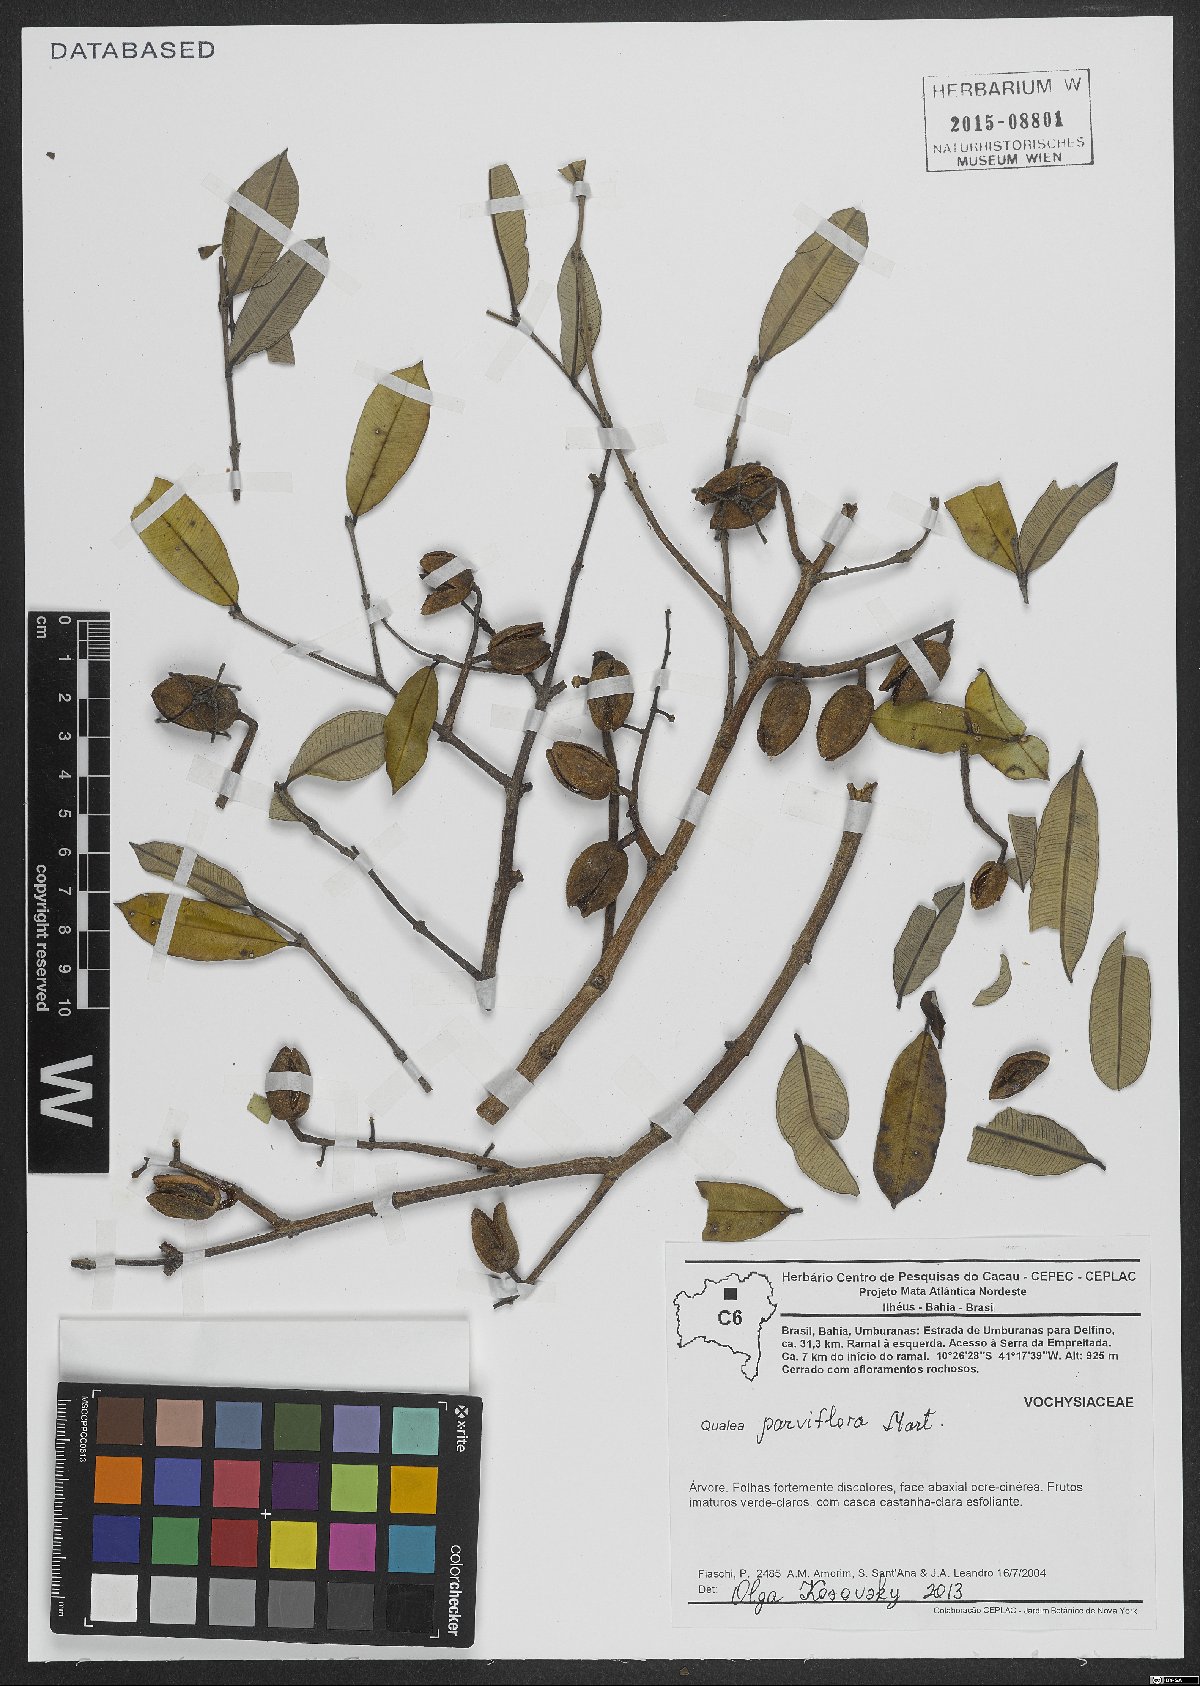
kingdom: Plantae
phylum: Tracheophyta
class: Magnoliopsida
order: Myrtales
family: Vochysiaceae
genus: Qualea
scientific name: Qualea parviflora
